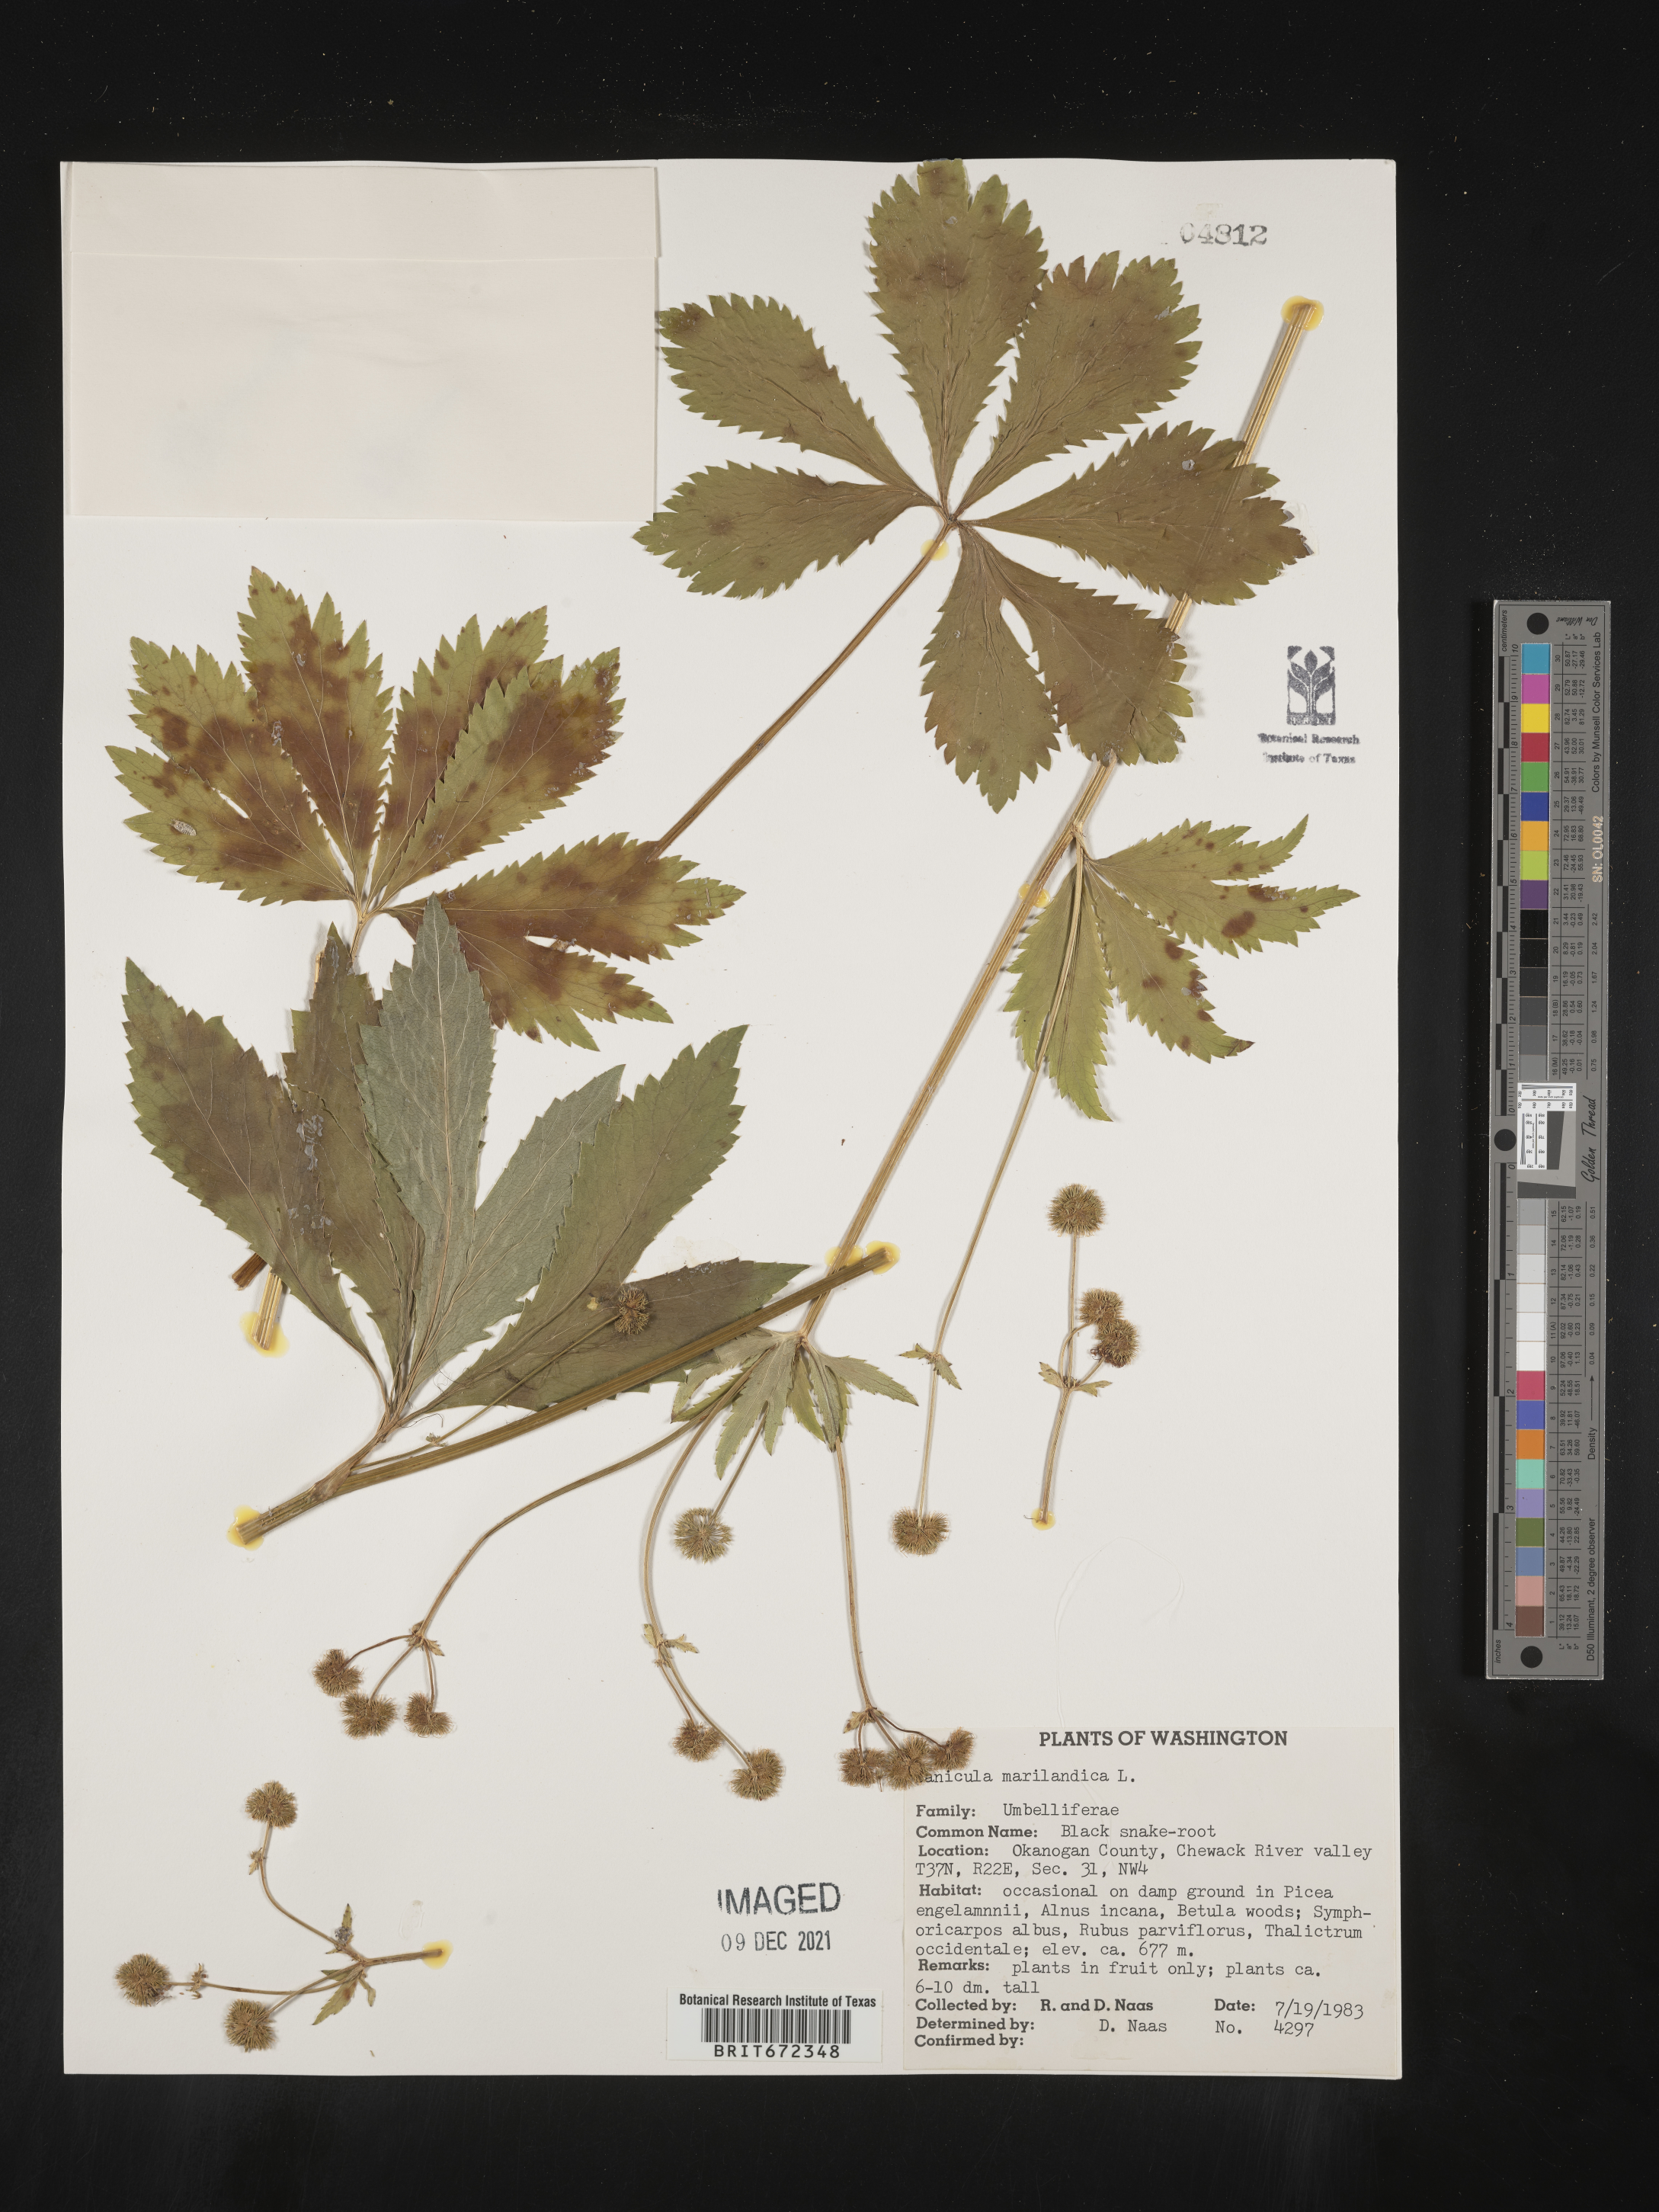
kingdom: Plantae
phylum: Tracheophyta
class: Magnoliopsida
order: Apiales
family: Apiaceae
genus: Sanicula
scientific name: Sanicula marilandica
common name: Black snakeroot
